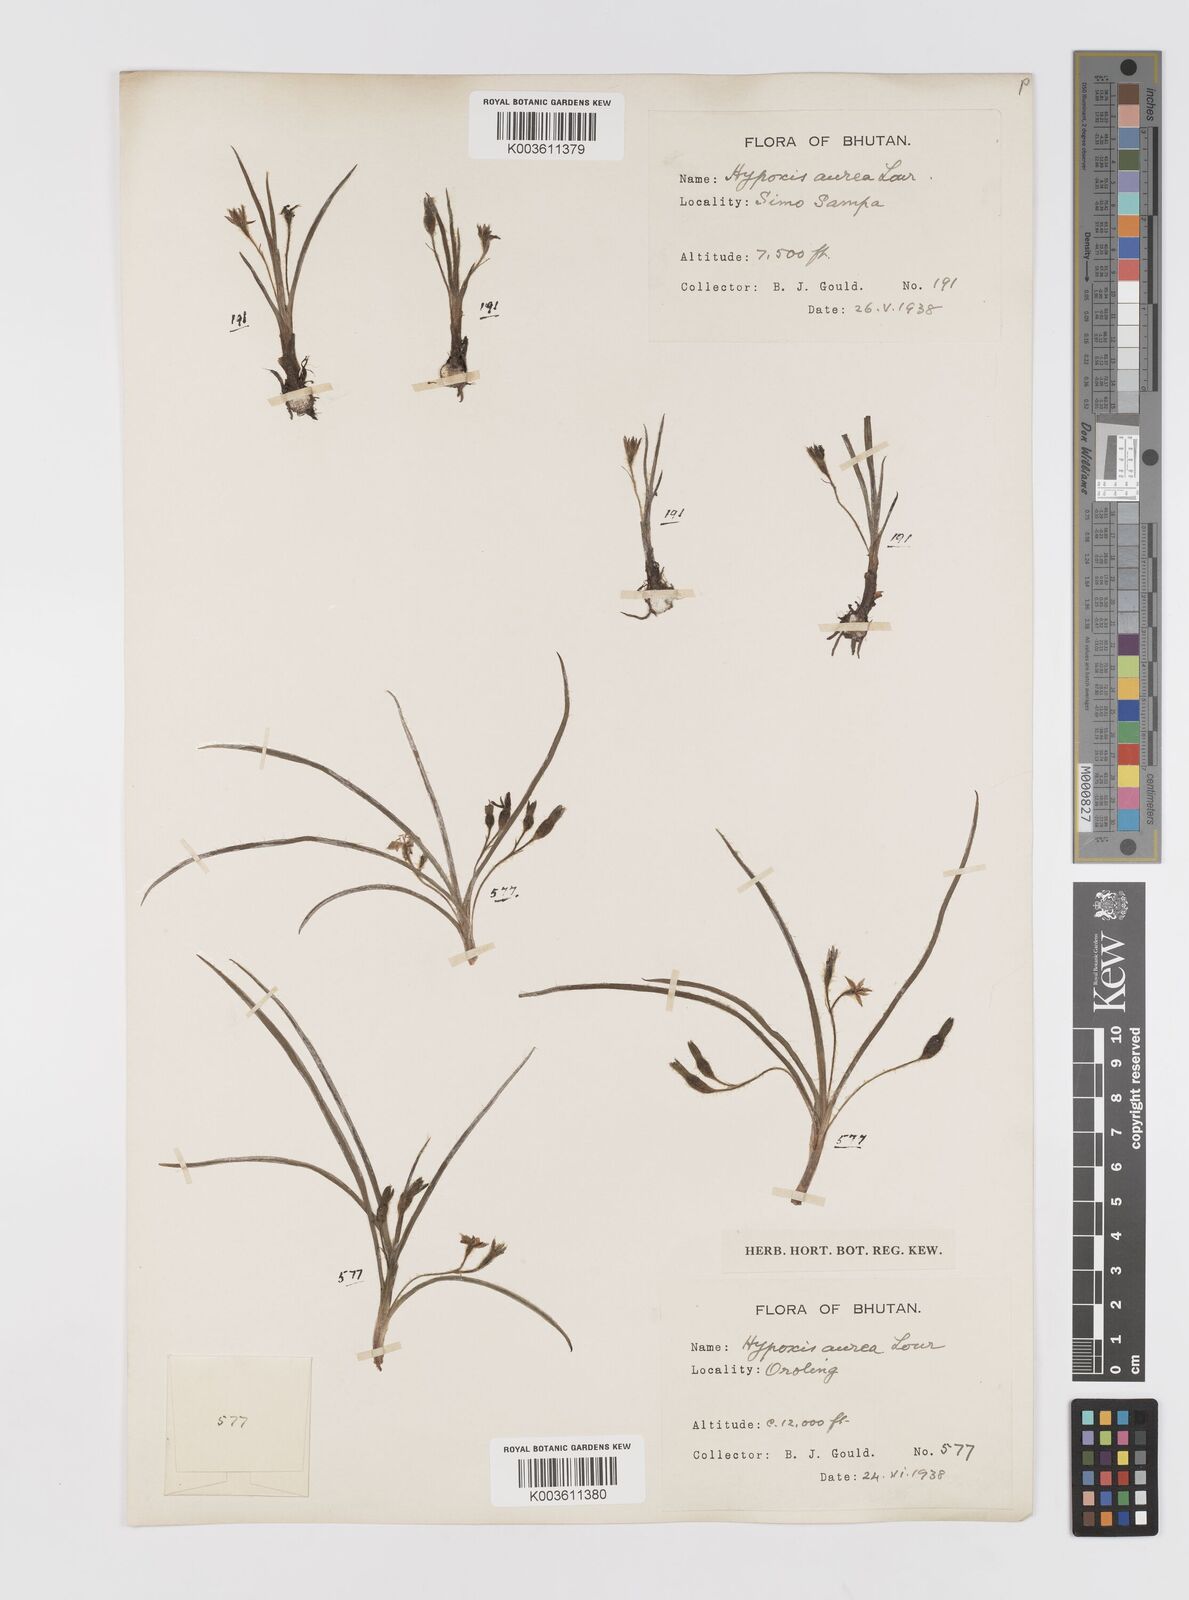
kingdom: Plantae
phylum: Tracheophyta
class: Liliopsida
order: Asparagales
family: Hypoxidaceae
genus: Hypoxis
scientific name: Hypoxis aurea
